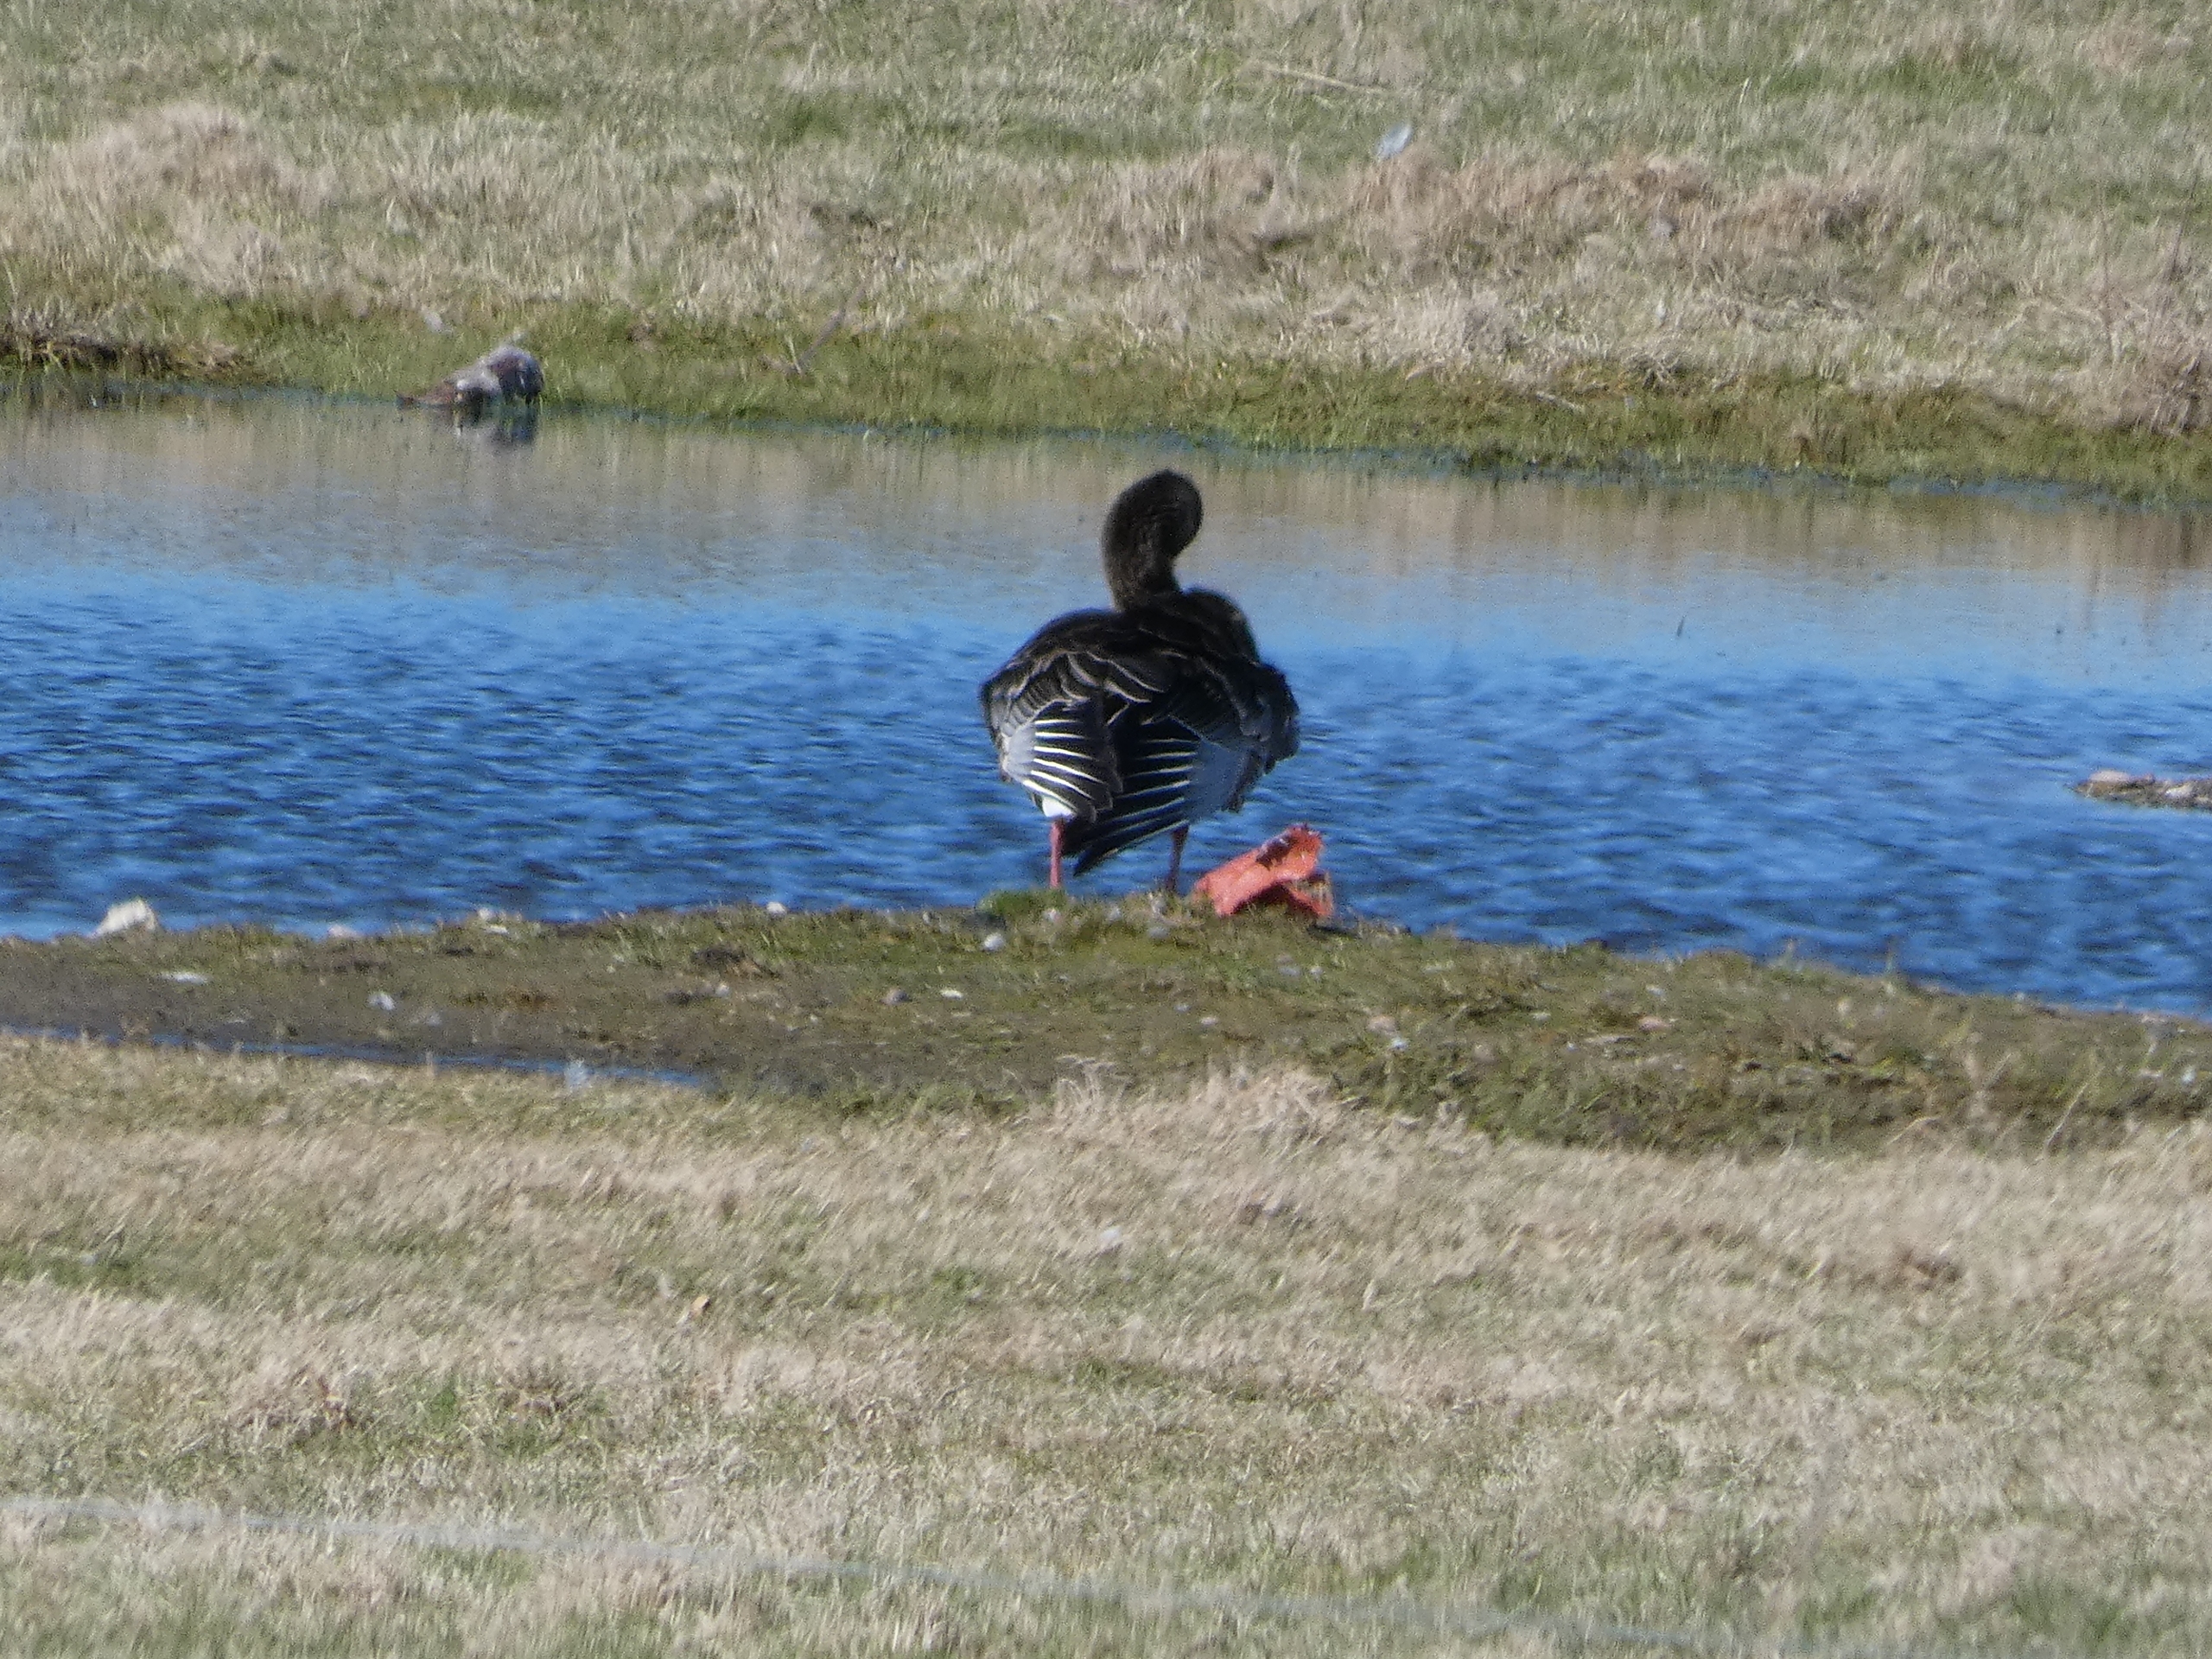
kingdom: Animalia
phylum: Chordata
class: Aves
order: Anseriformes
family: Anatidae
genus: Anser
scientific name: Anser anser
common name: Grågås
